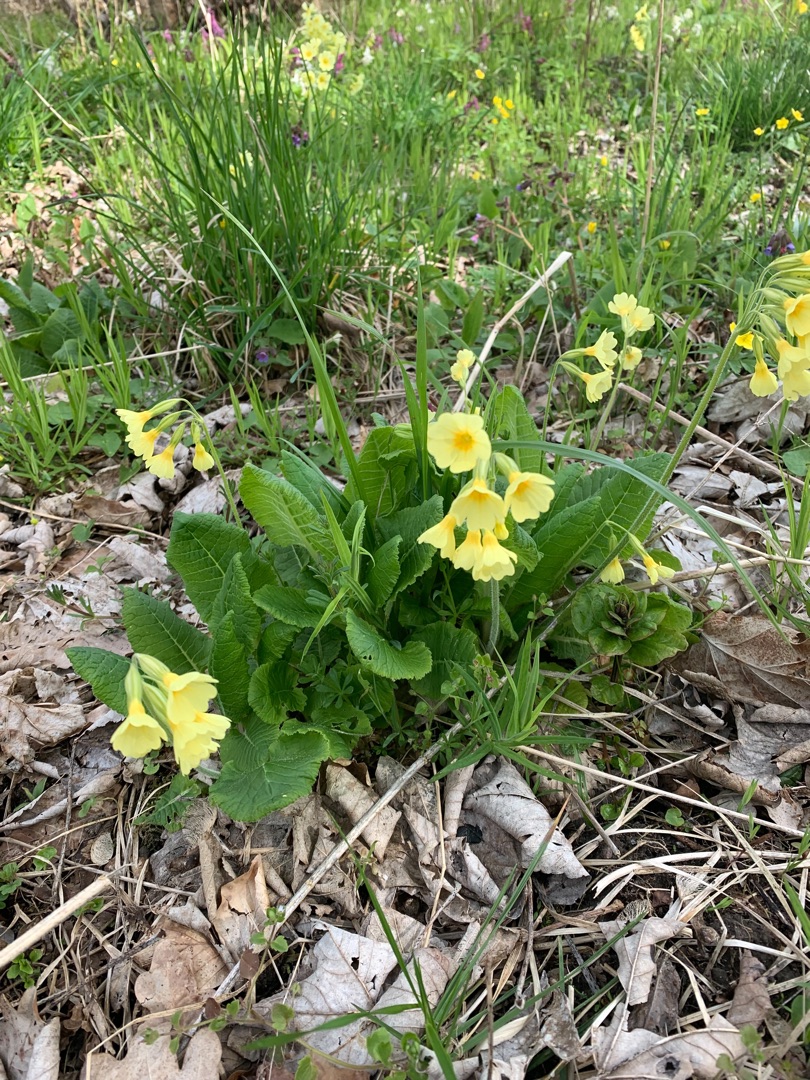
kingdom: Plantae
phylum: Tracheophyta
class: Magnoliopsida
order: Ericales
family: Primulaceae
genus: Primula
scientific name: Primula elatior
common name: Fladkravet kodriver
